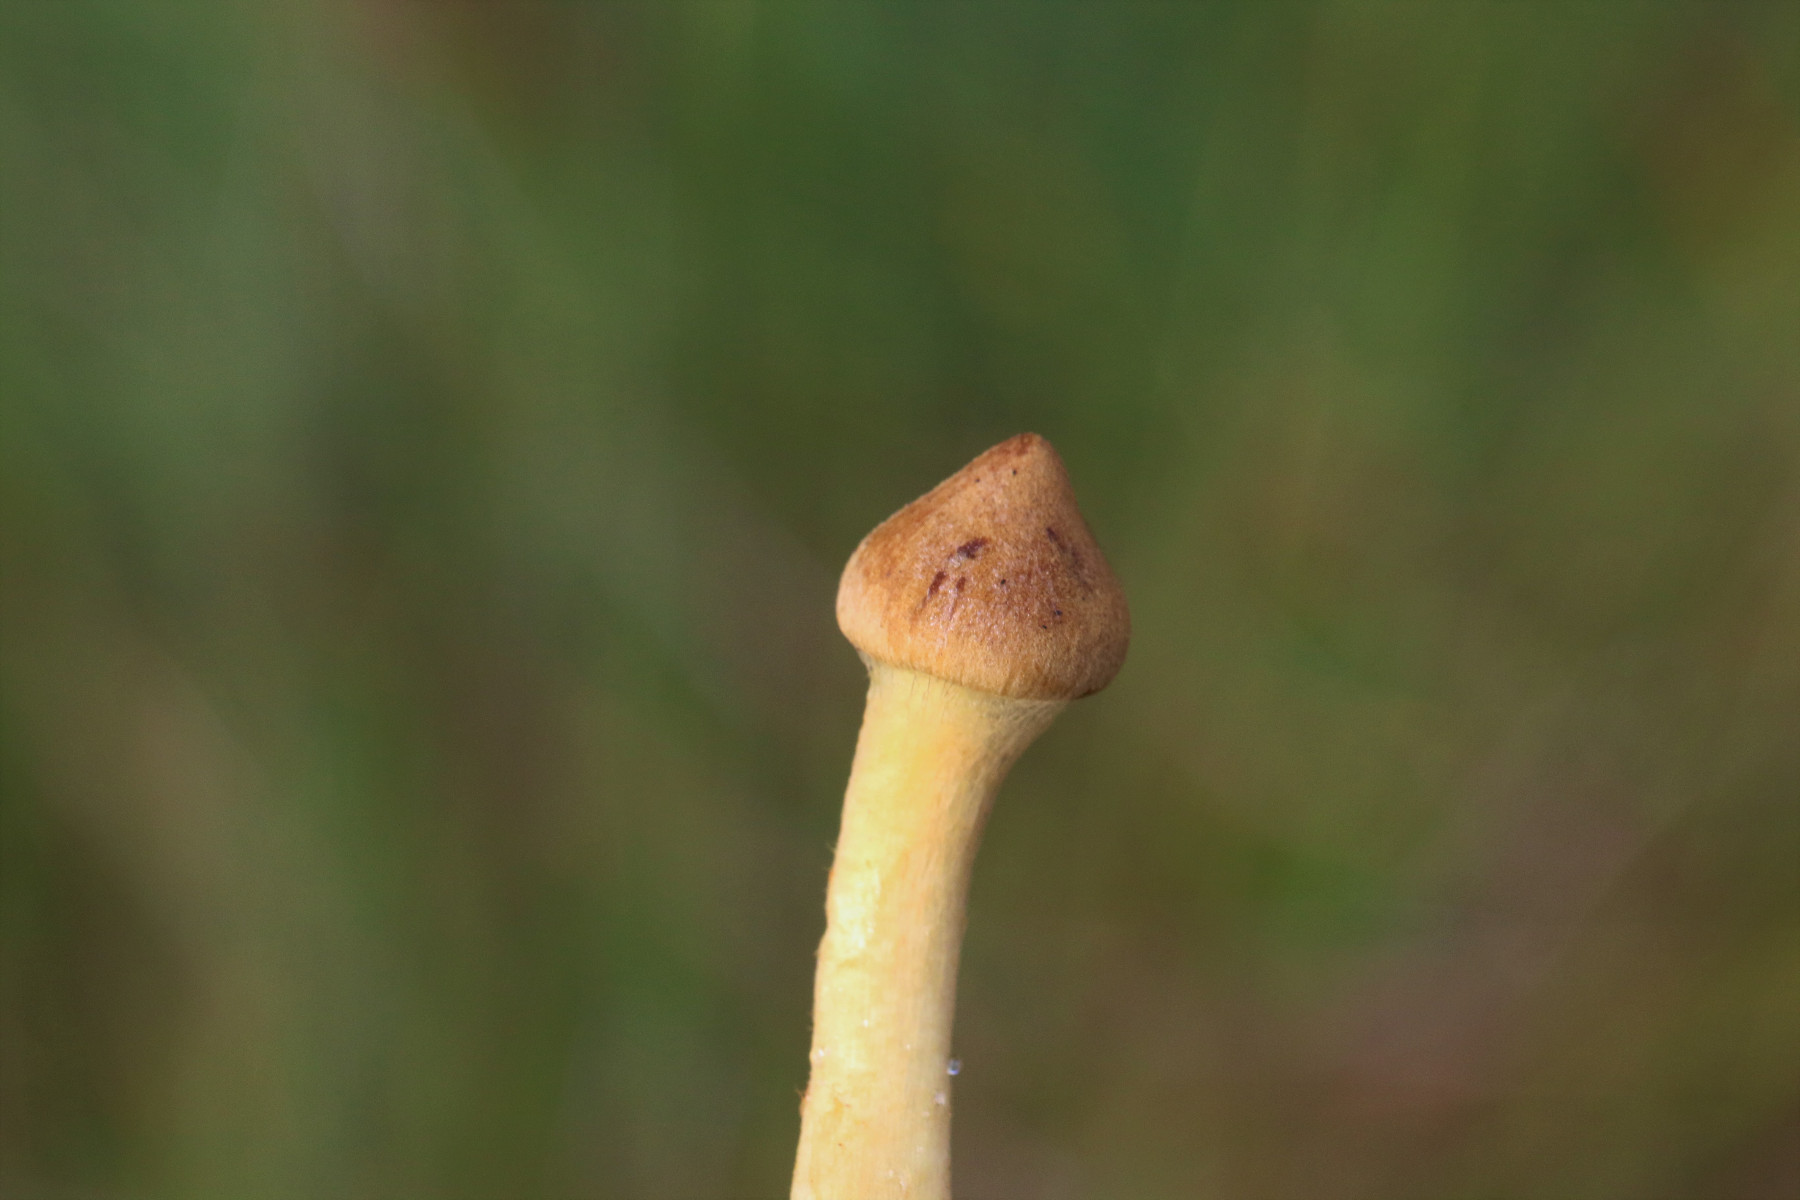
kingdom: Fungi
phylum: Basidiomycota
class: Agaricomycetes
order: Agaricales
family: Cortinariaceae
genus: Cortinarius
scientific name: Cortinarius subfusipes
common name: højmose-slørhat
